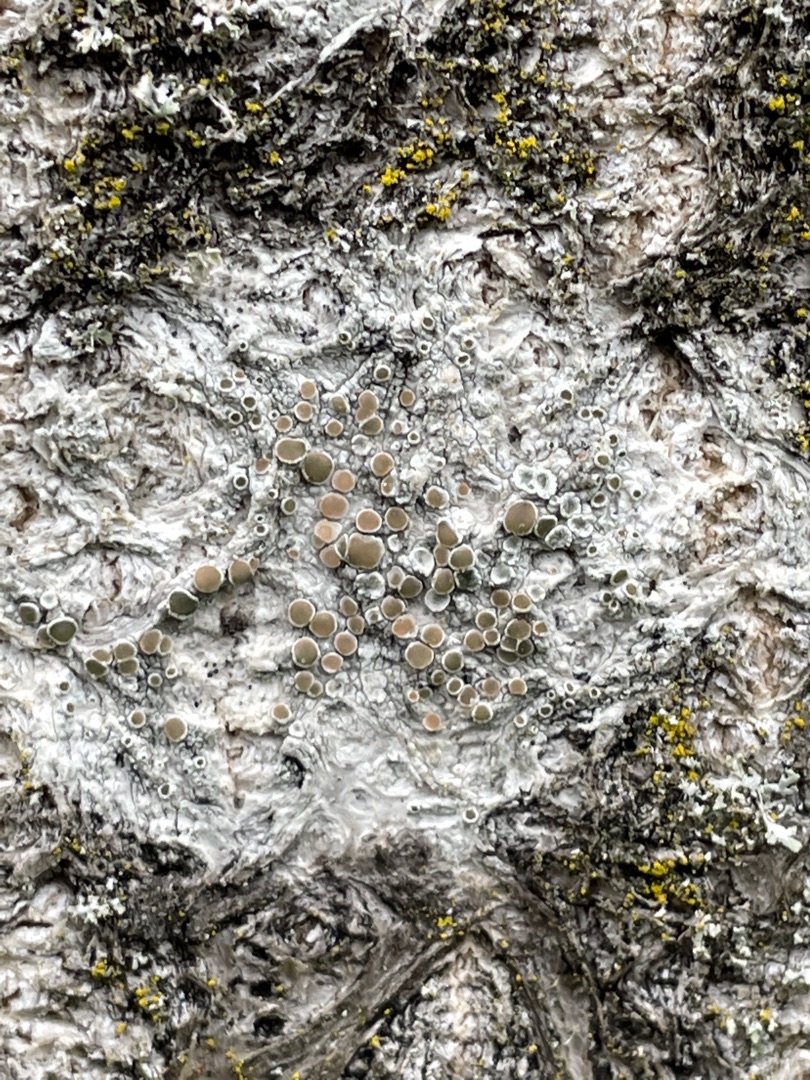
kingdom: Fungi
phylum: Ascomycota
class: Lecanoromycetes
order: Lecanorales
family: Lecanoraceae
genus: Lecanora
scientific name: Lecanora chlarotera
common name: Brun kantskivelav
